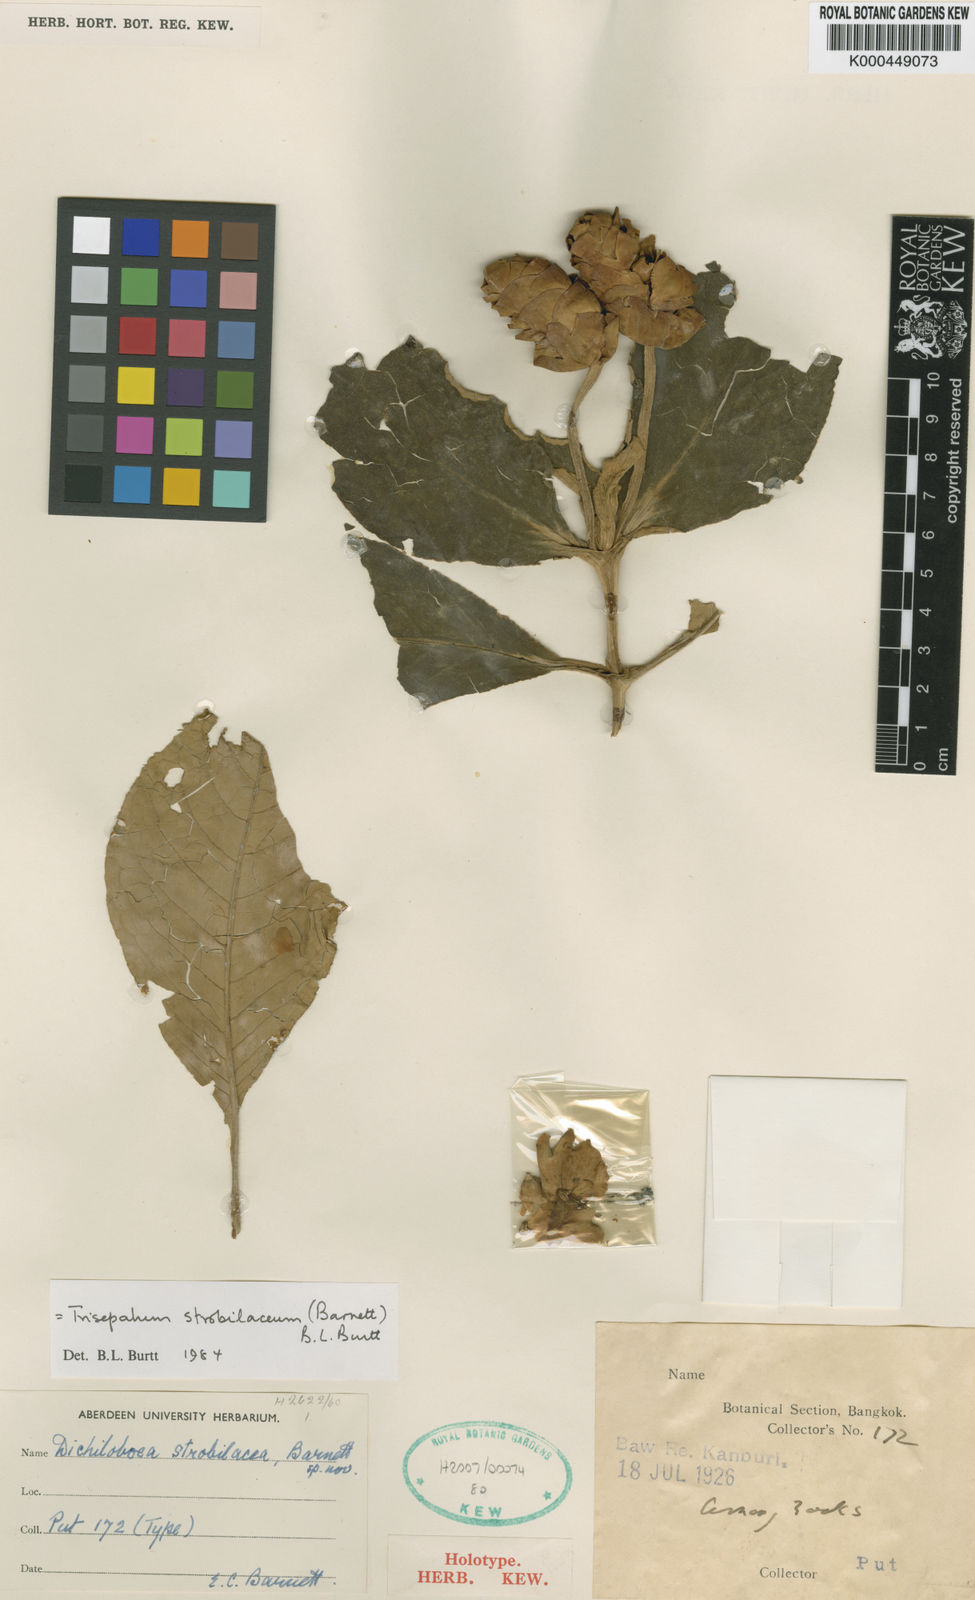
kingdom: Plantae
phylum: Tracheophyta
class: Magnoliopsida
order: Lamiales
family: Gesneriaceae
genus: Paraboea
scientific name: Paraboea strobilacea
